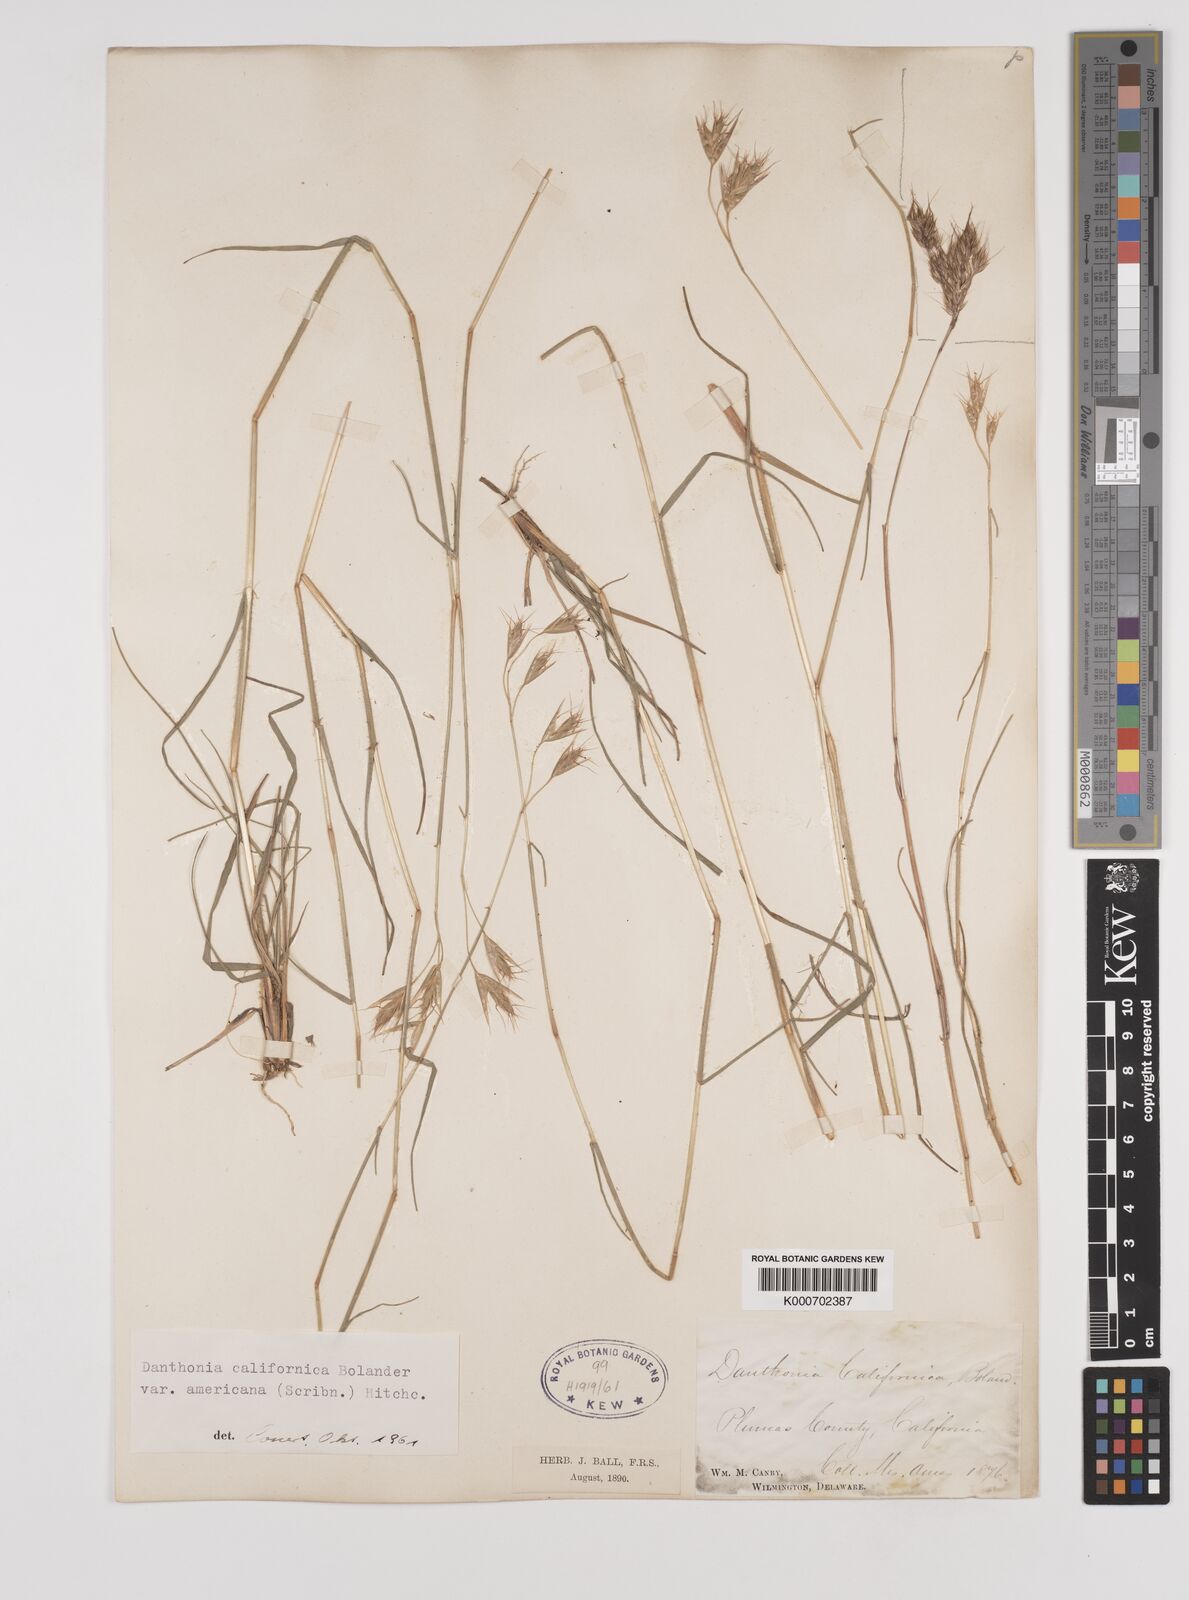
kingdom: Plantae
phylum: Tracheophyta
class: Liliopsida
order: Poales
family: Poaceae
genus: Danthonia
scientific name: Danthonia californica
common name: California oat grass
